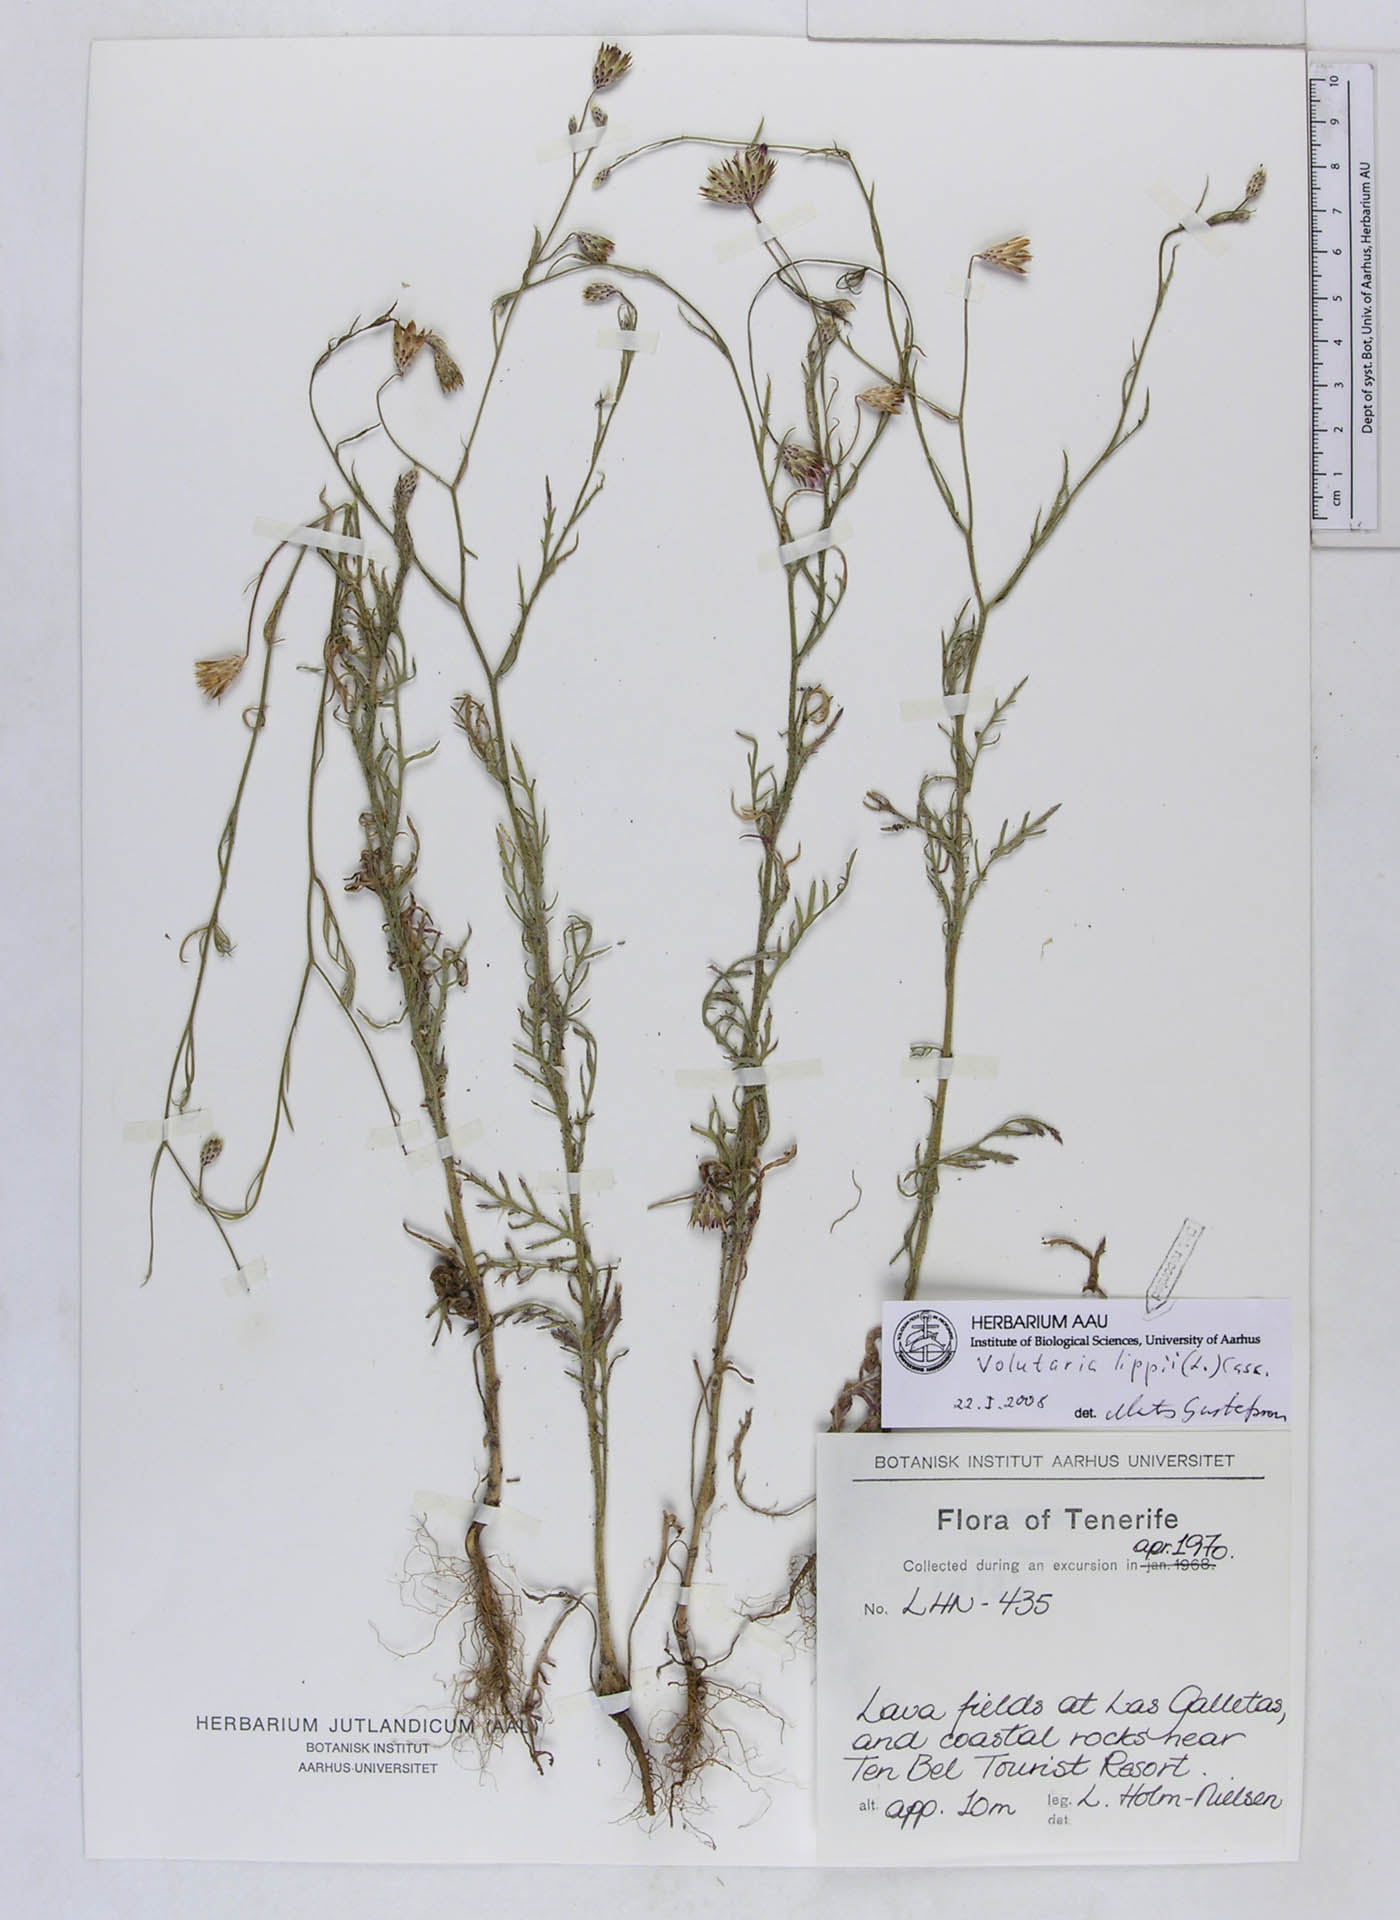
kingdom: Plantae
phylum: Tracheophyta
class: Magnoliopsida
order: Asterales
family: Asteraceae
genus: Volutaria
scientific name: Volutaria lippii
